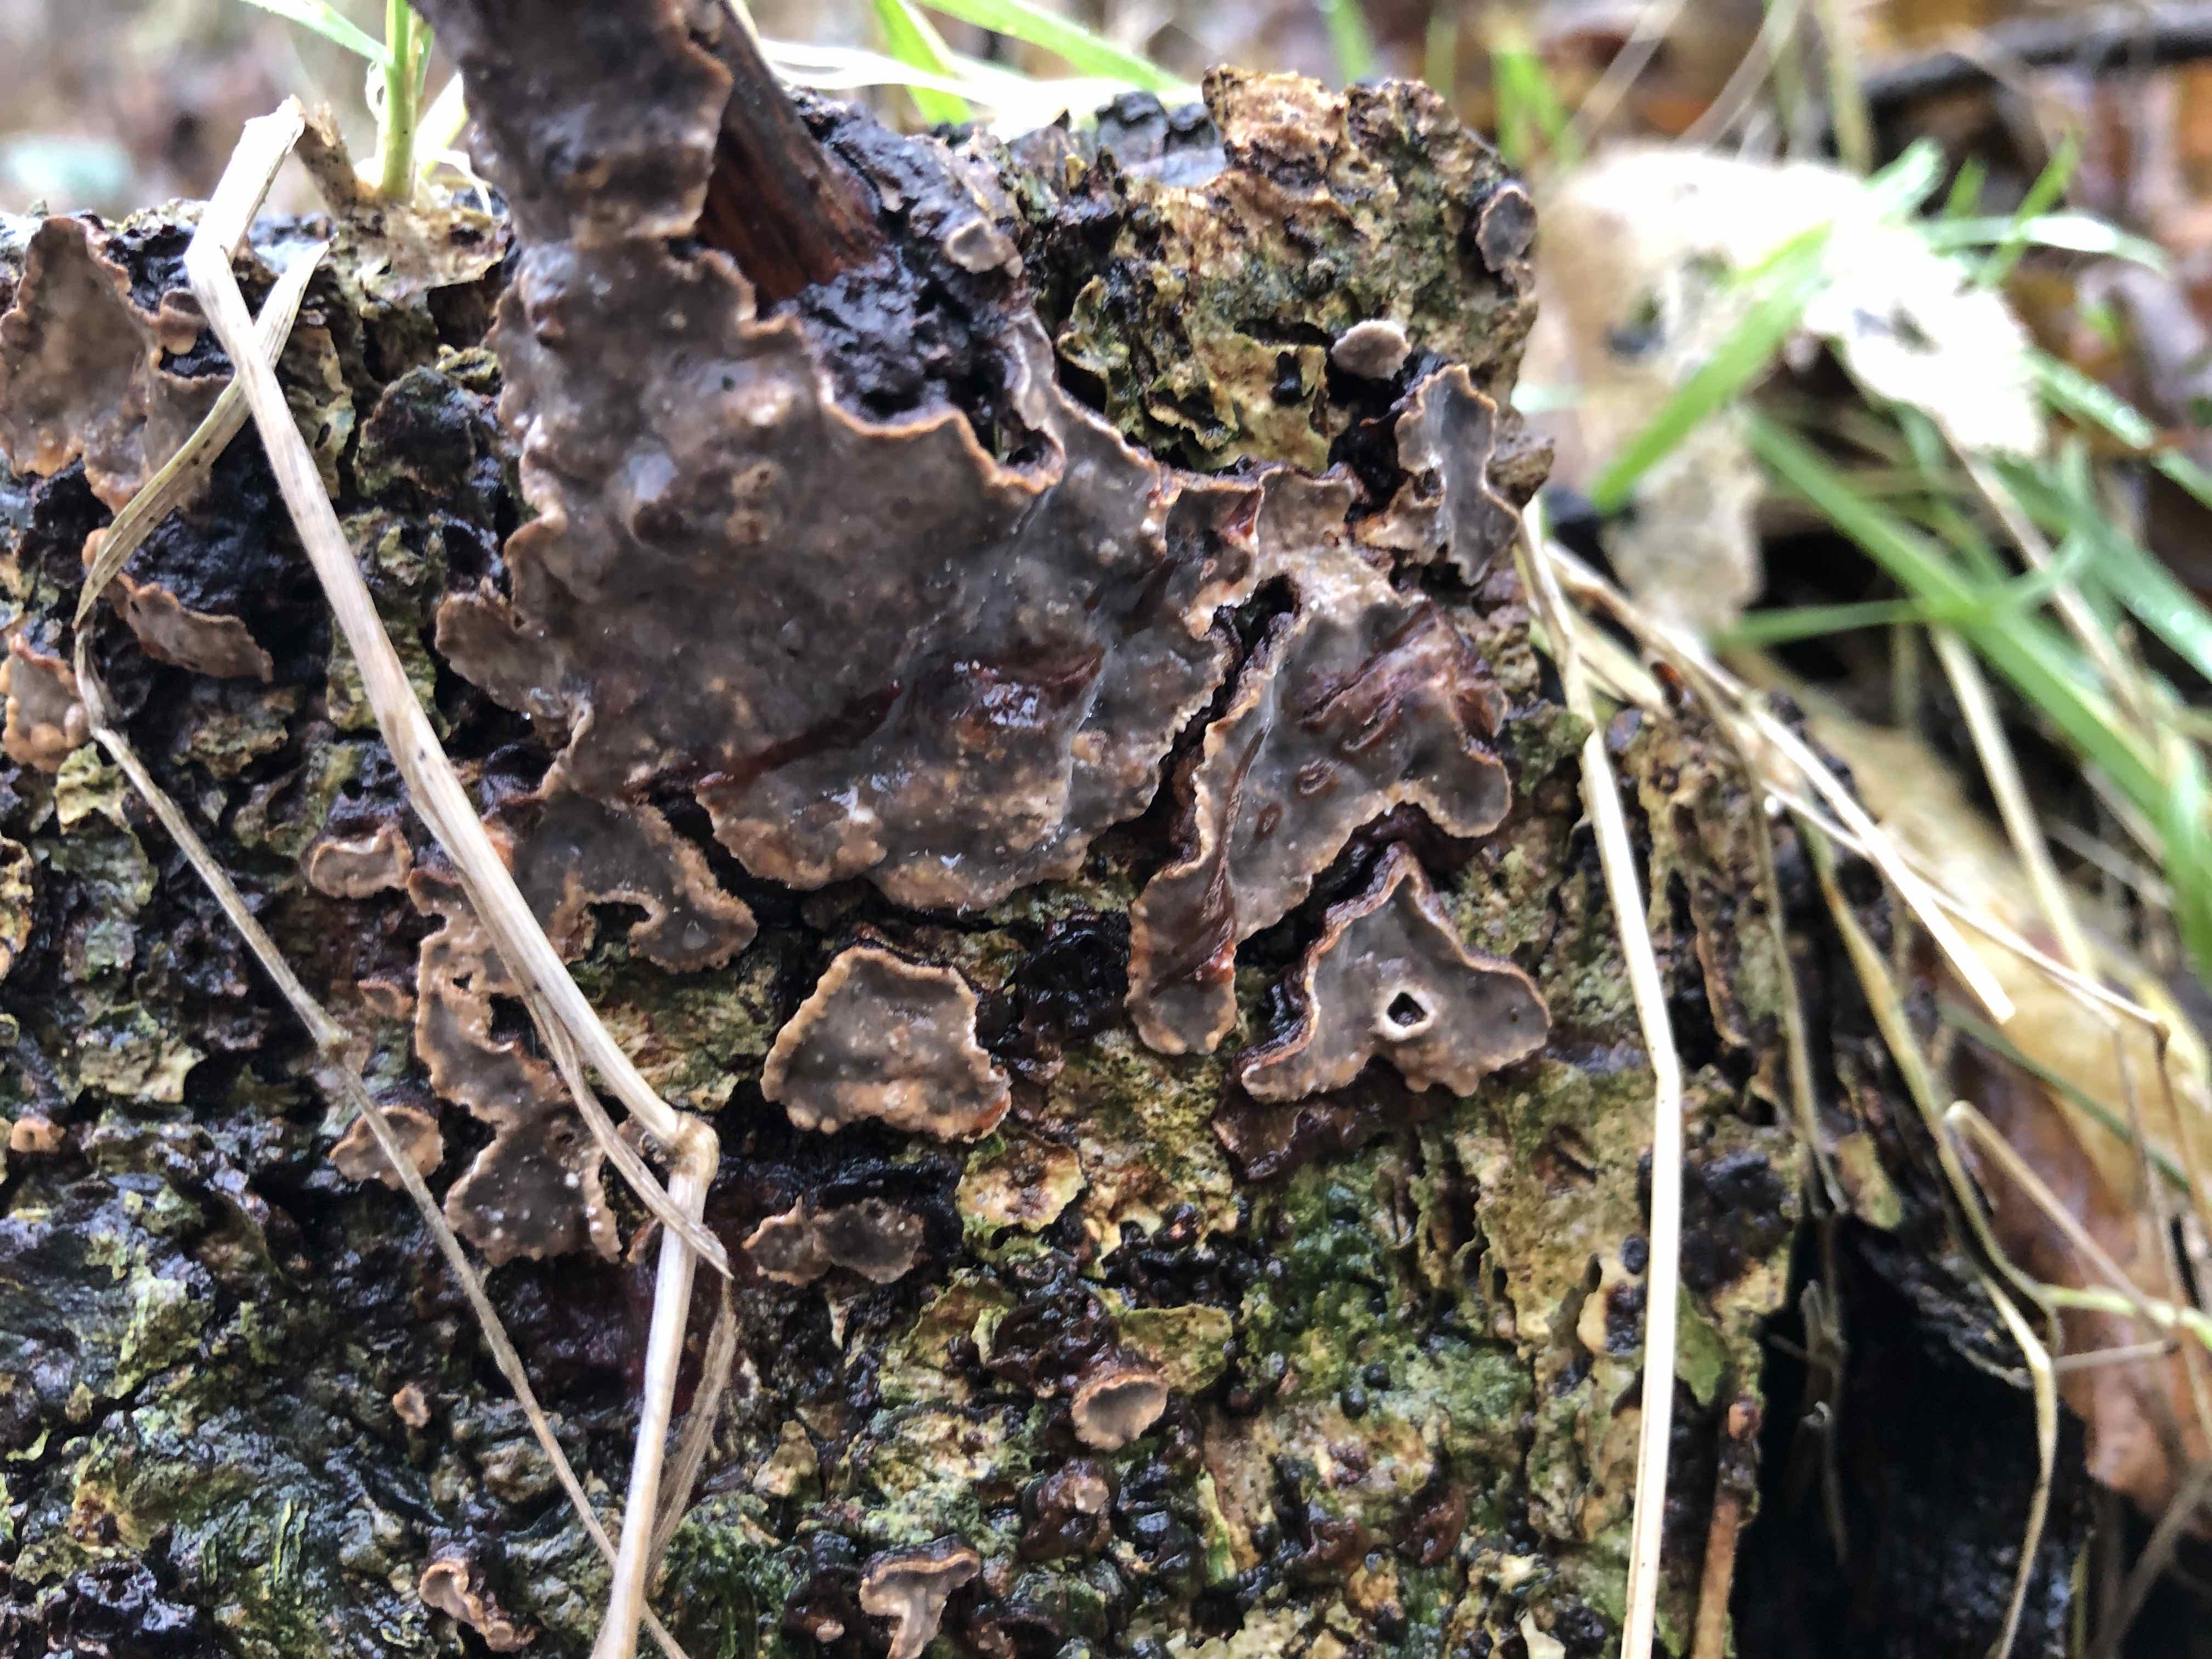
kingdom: Fungi
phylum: Basidiomycota
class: Agaricomycetes
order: Russulales
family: Stereaceae
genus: Stereum
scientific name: Stereum rugosum
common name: rynket lædersvamp
